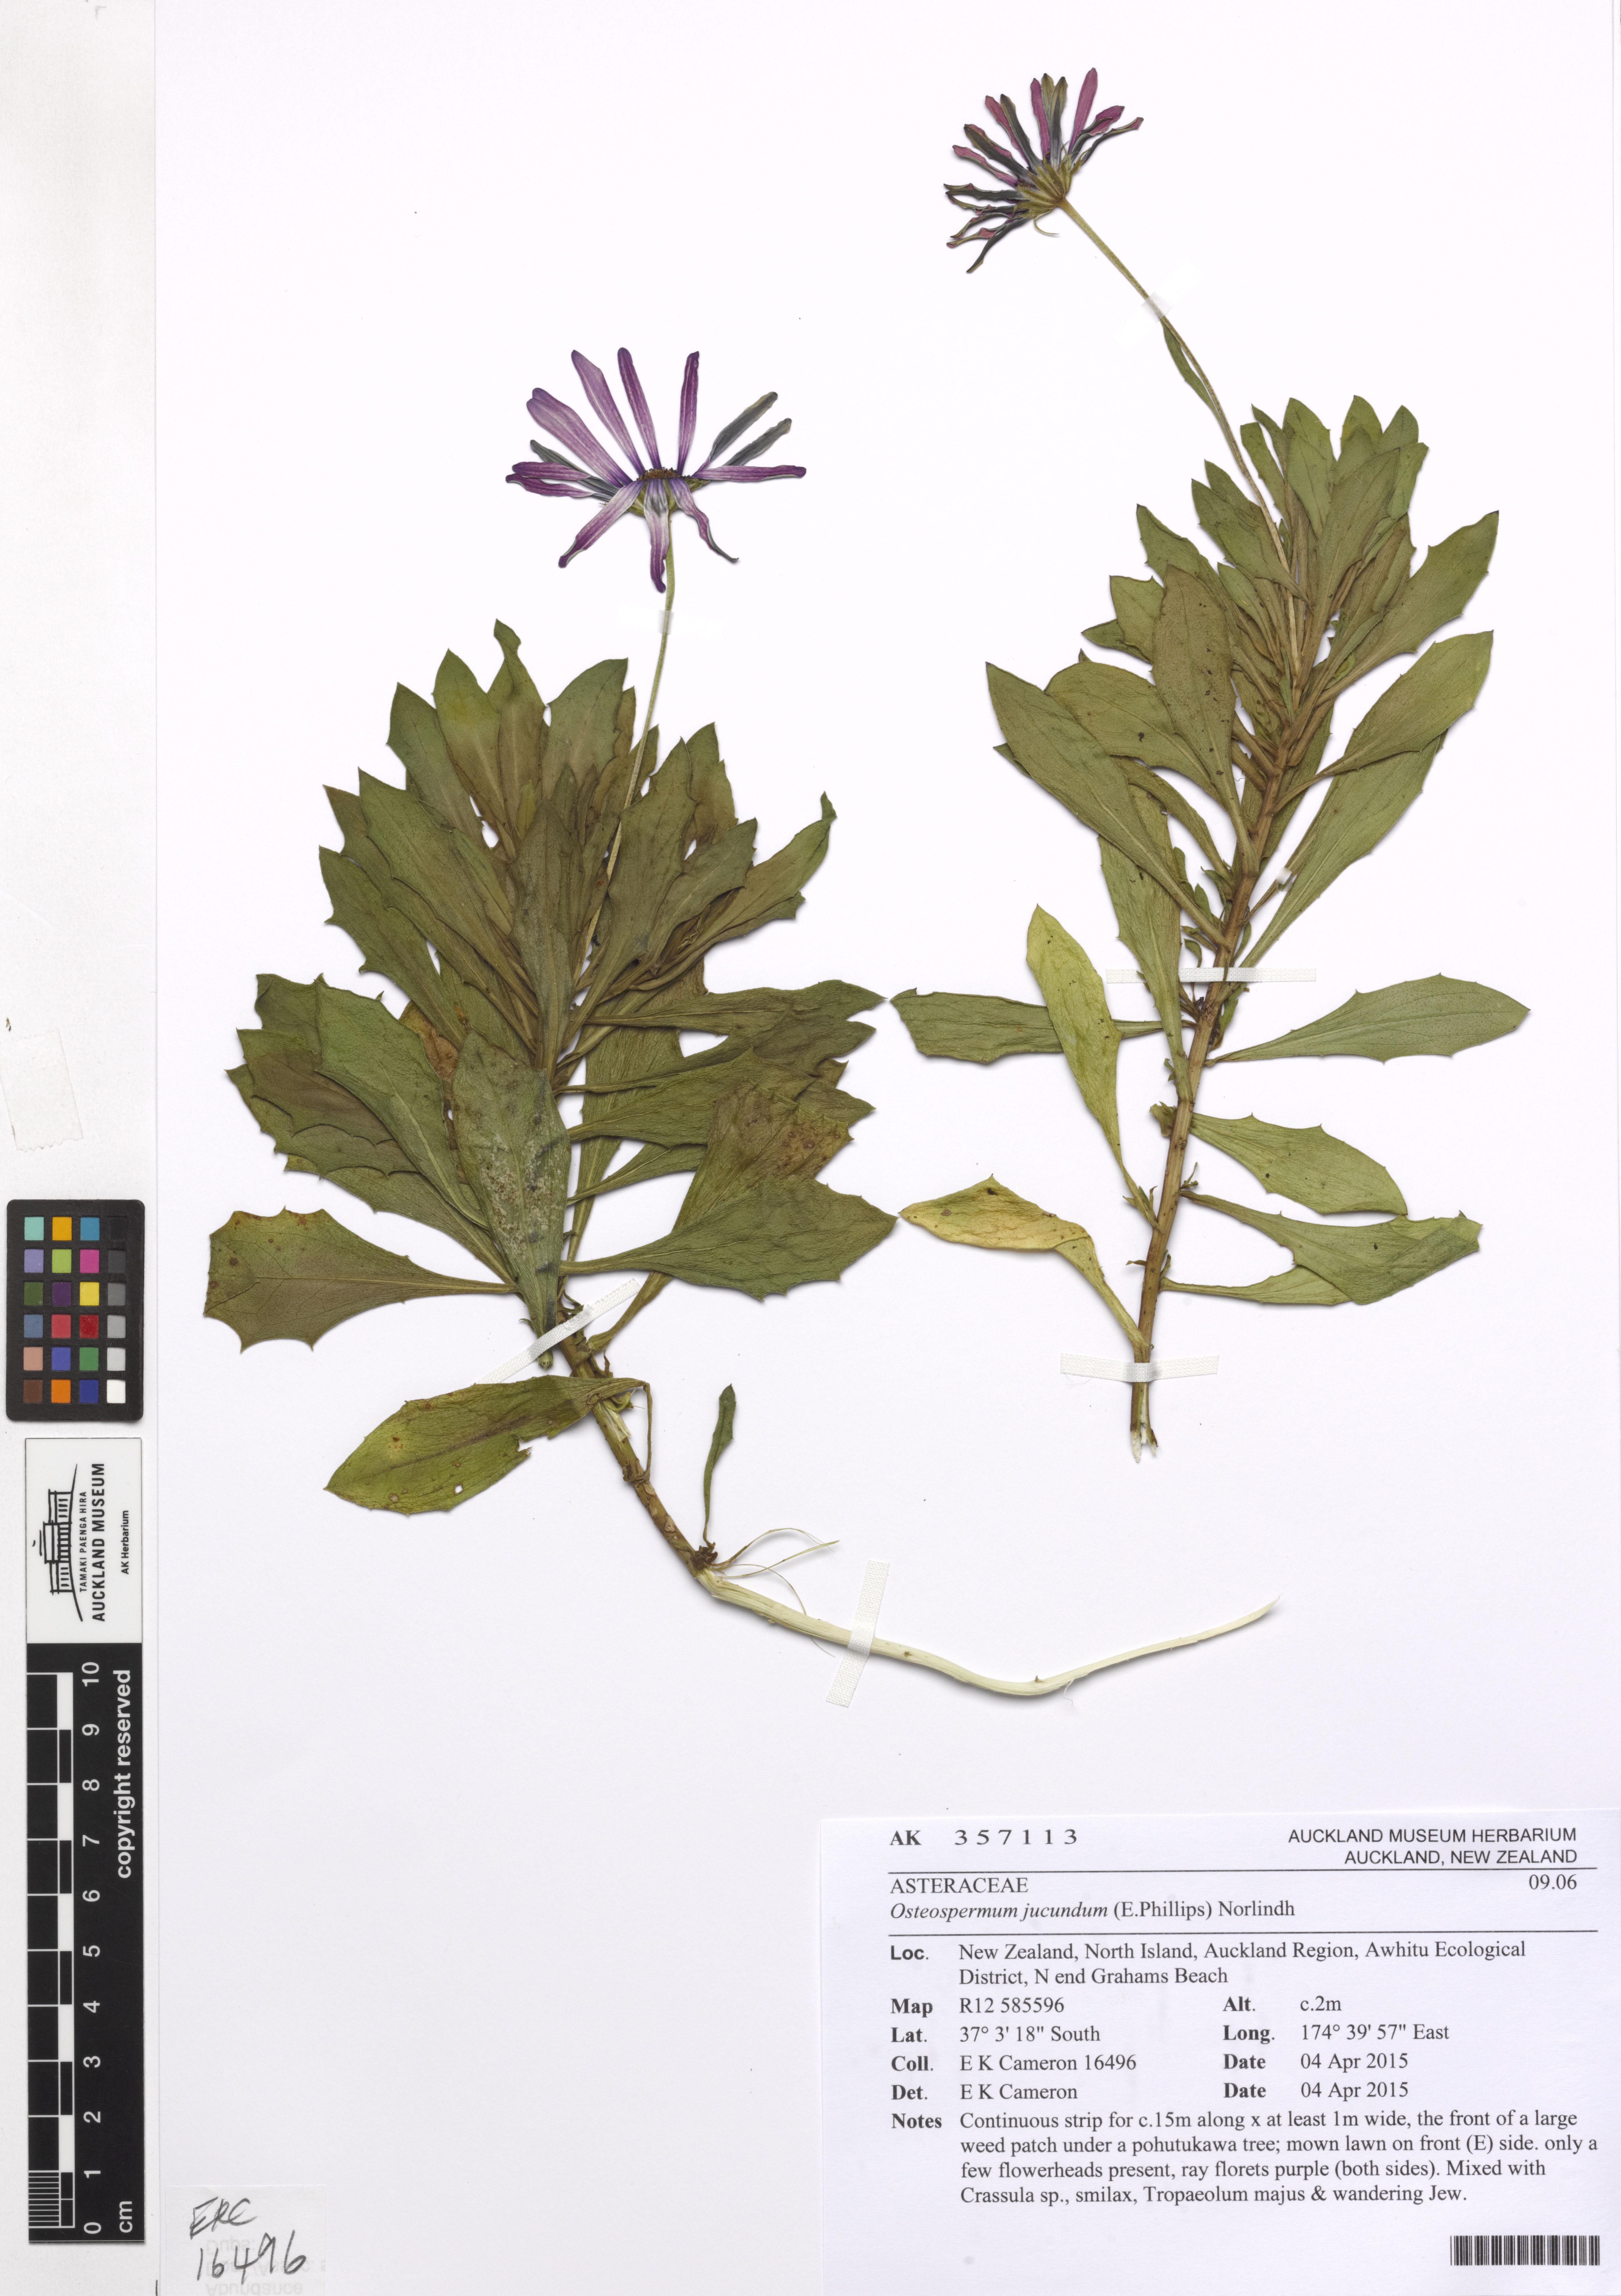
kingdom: Plantae
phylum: Tracheophyta
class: Magnoliopsida
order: Asterales
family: Asteraceae
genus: Dimorphotheca
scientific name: Dimorphotheca jucunda
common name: Osteospermum
